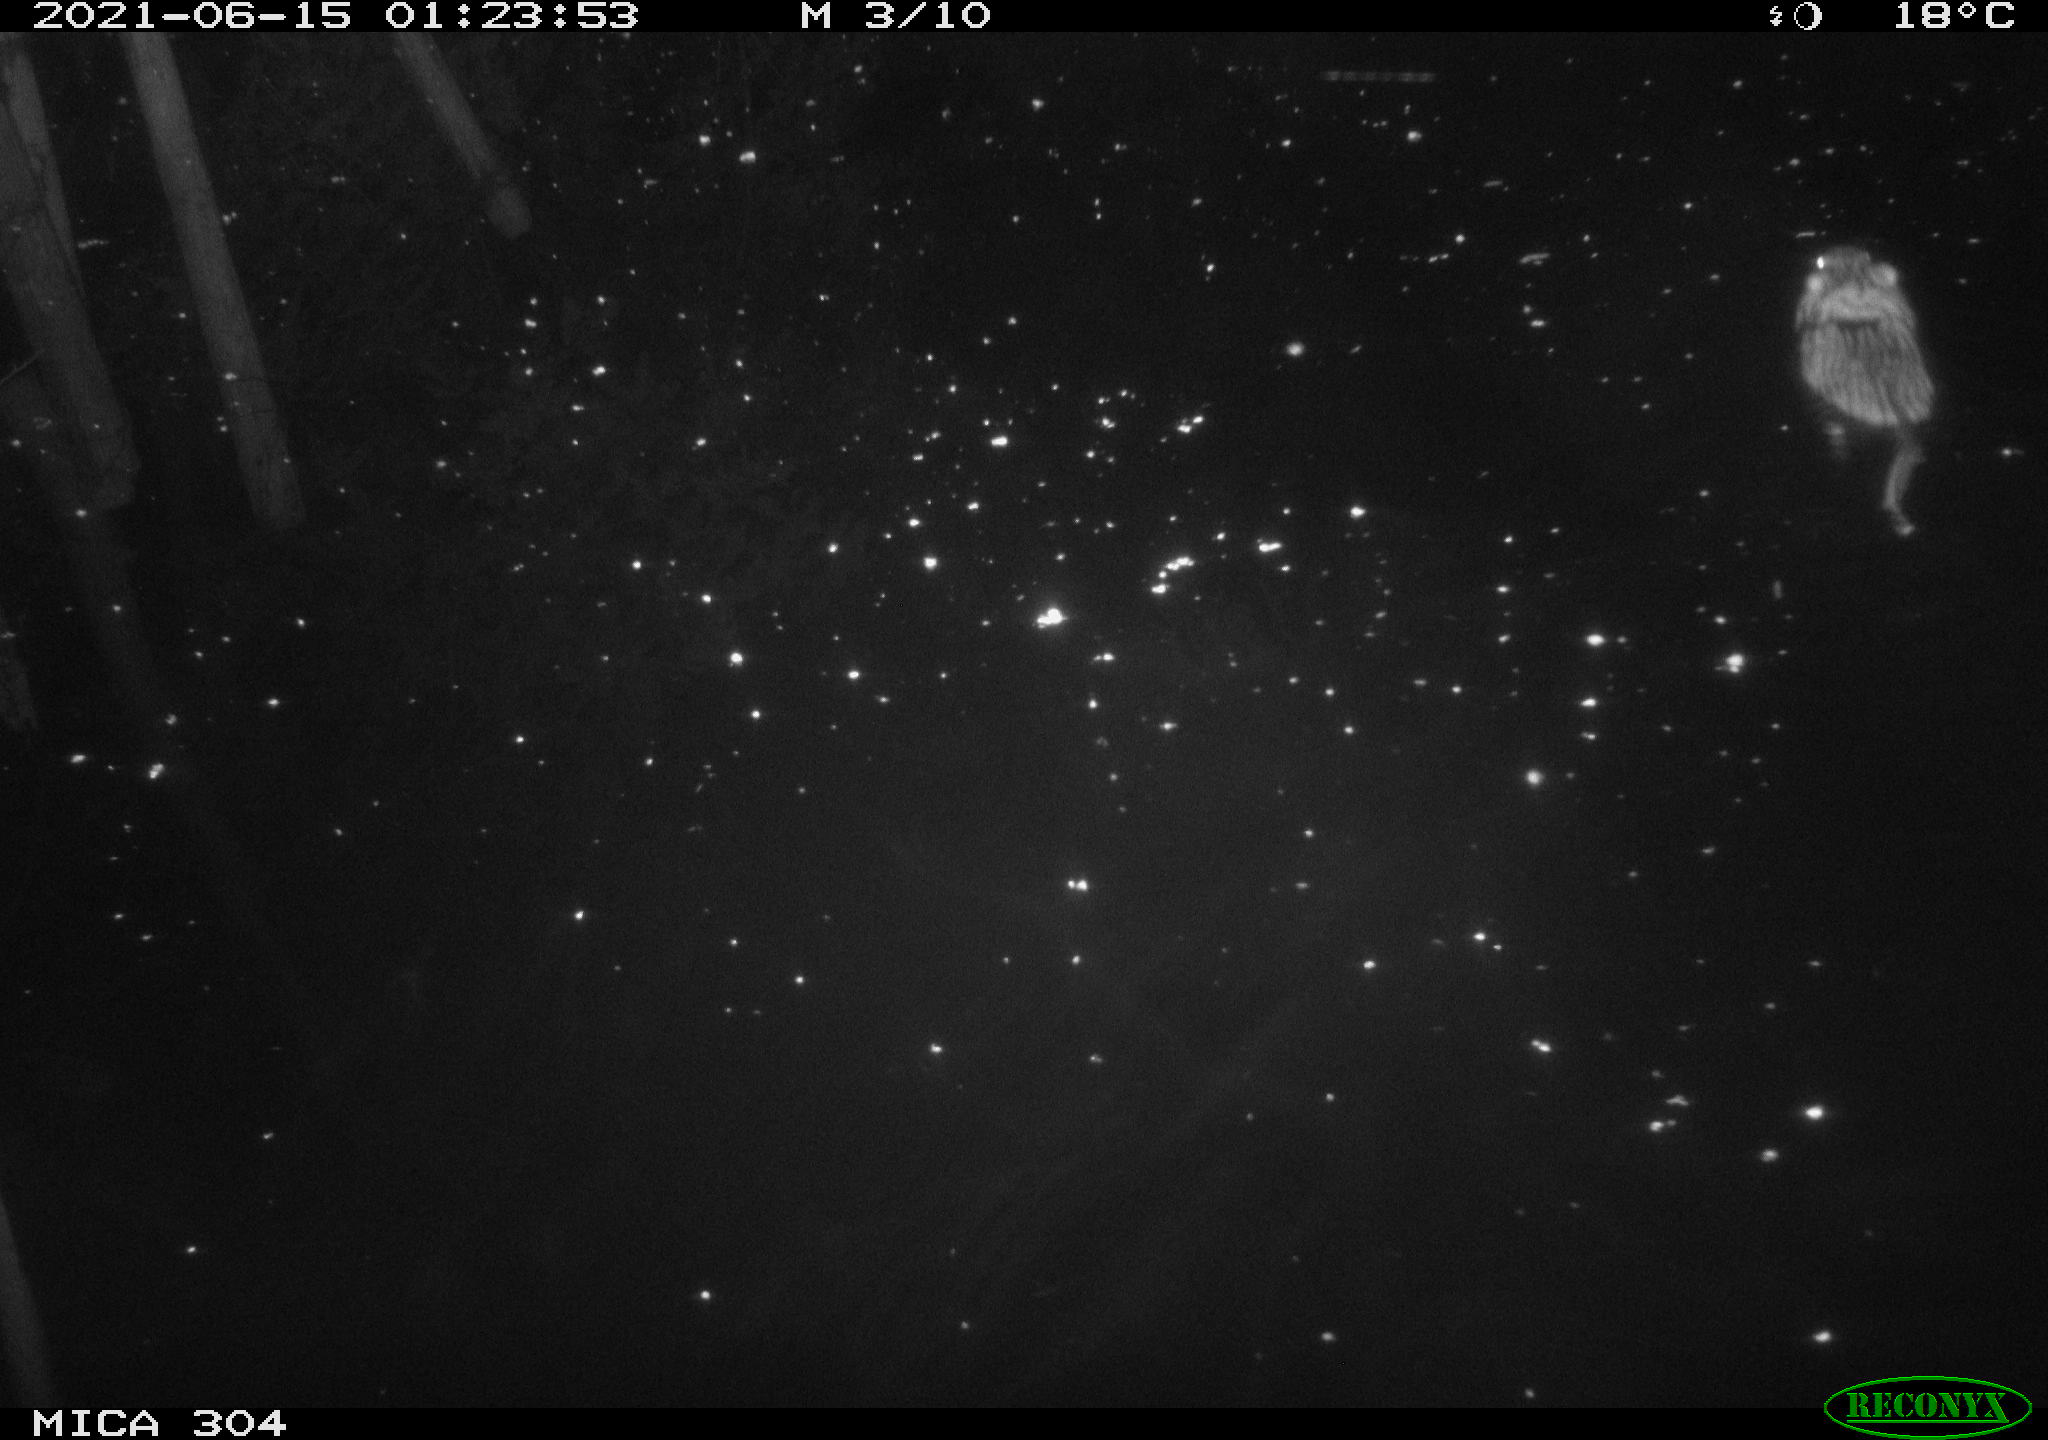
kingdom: Animalia
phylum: Chordata
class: Mammalia
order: Rodentia
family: Cricetidae
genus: Ondatra
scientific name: Ondatra zibethicus
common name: Muskrat
